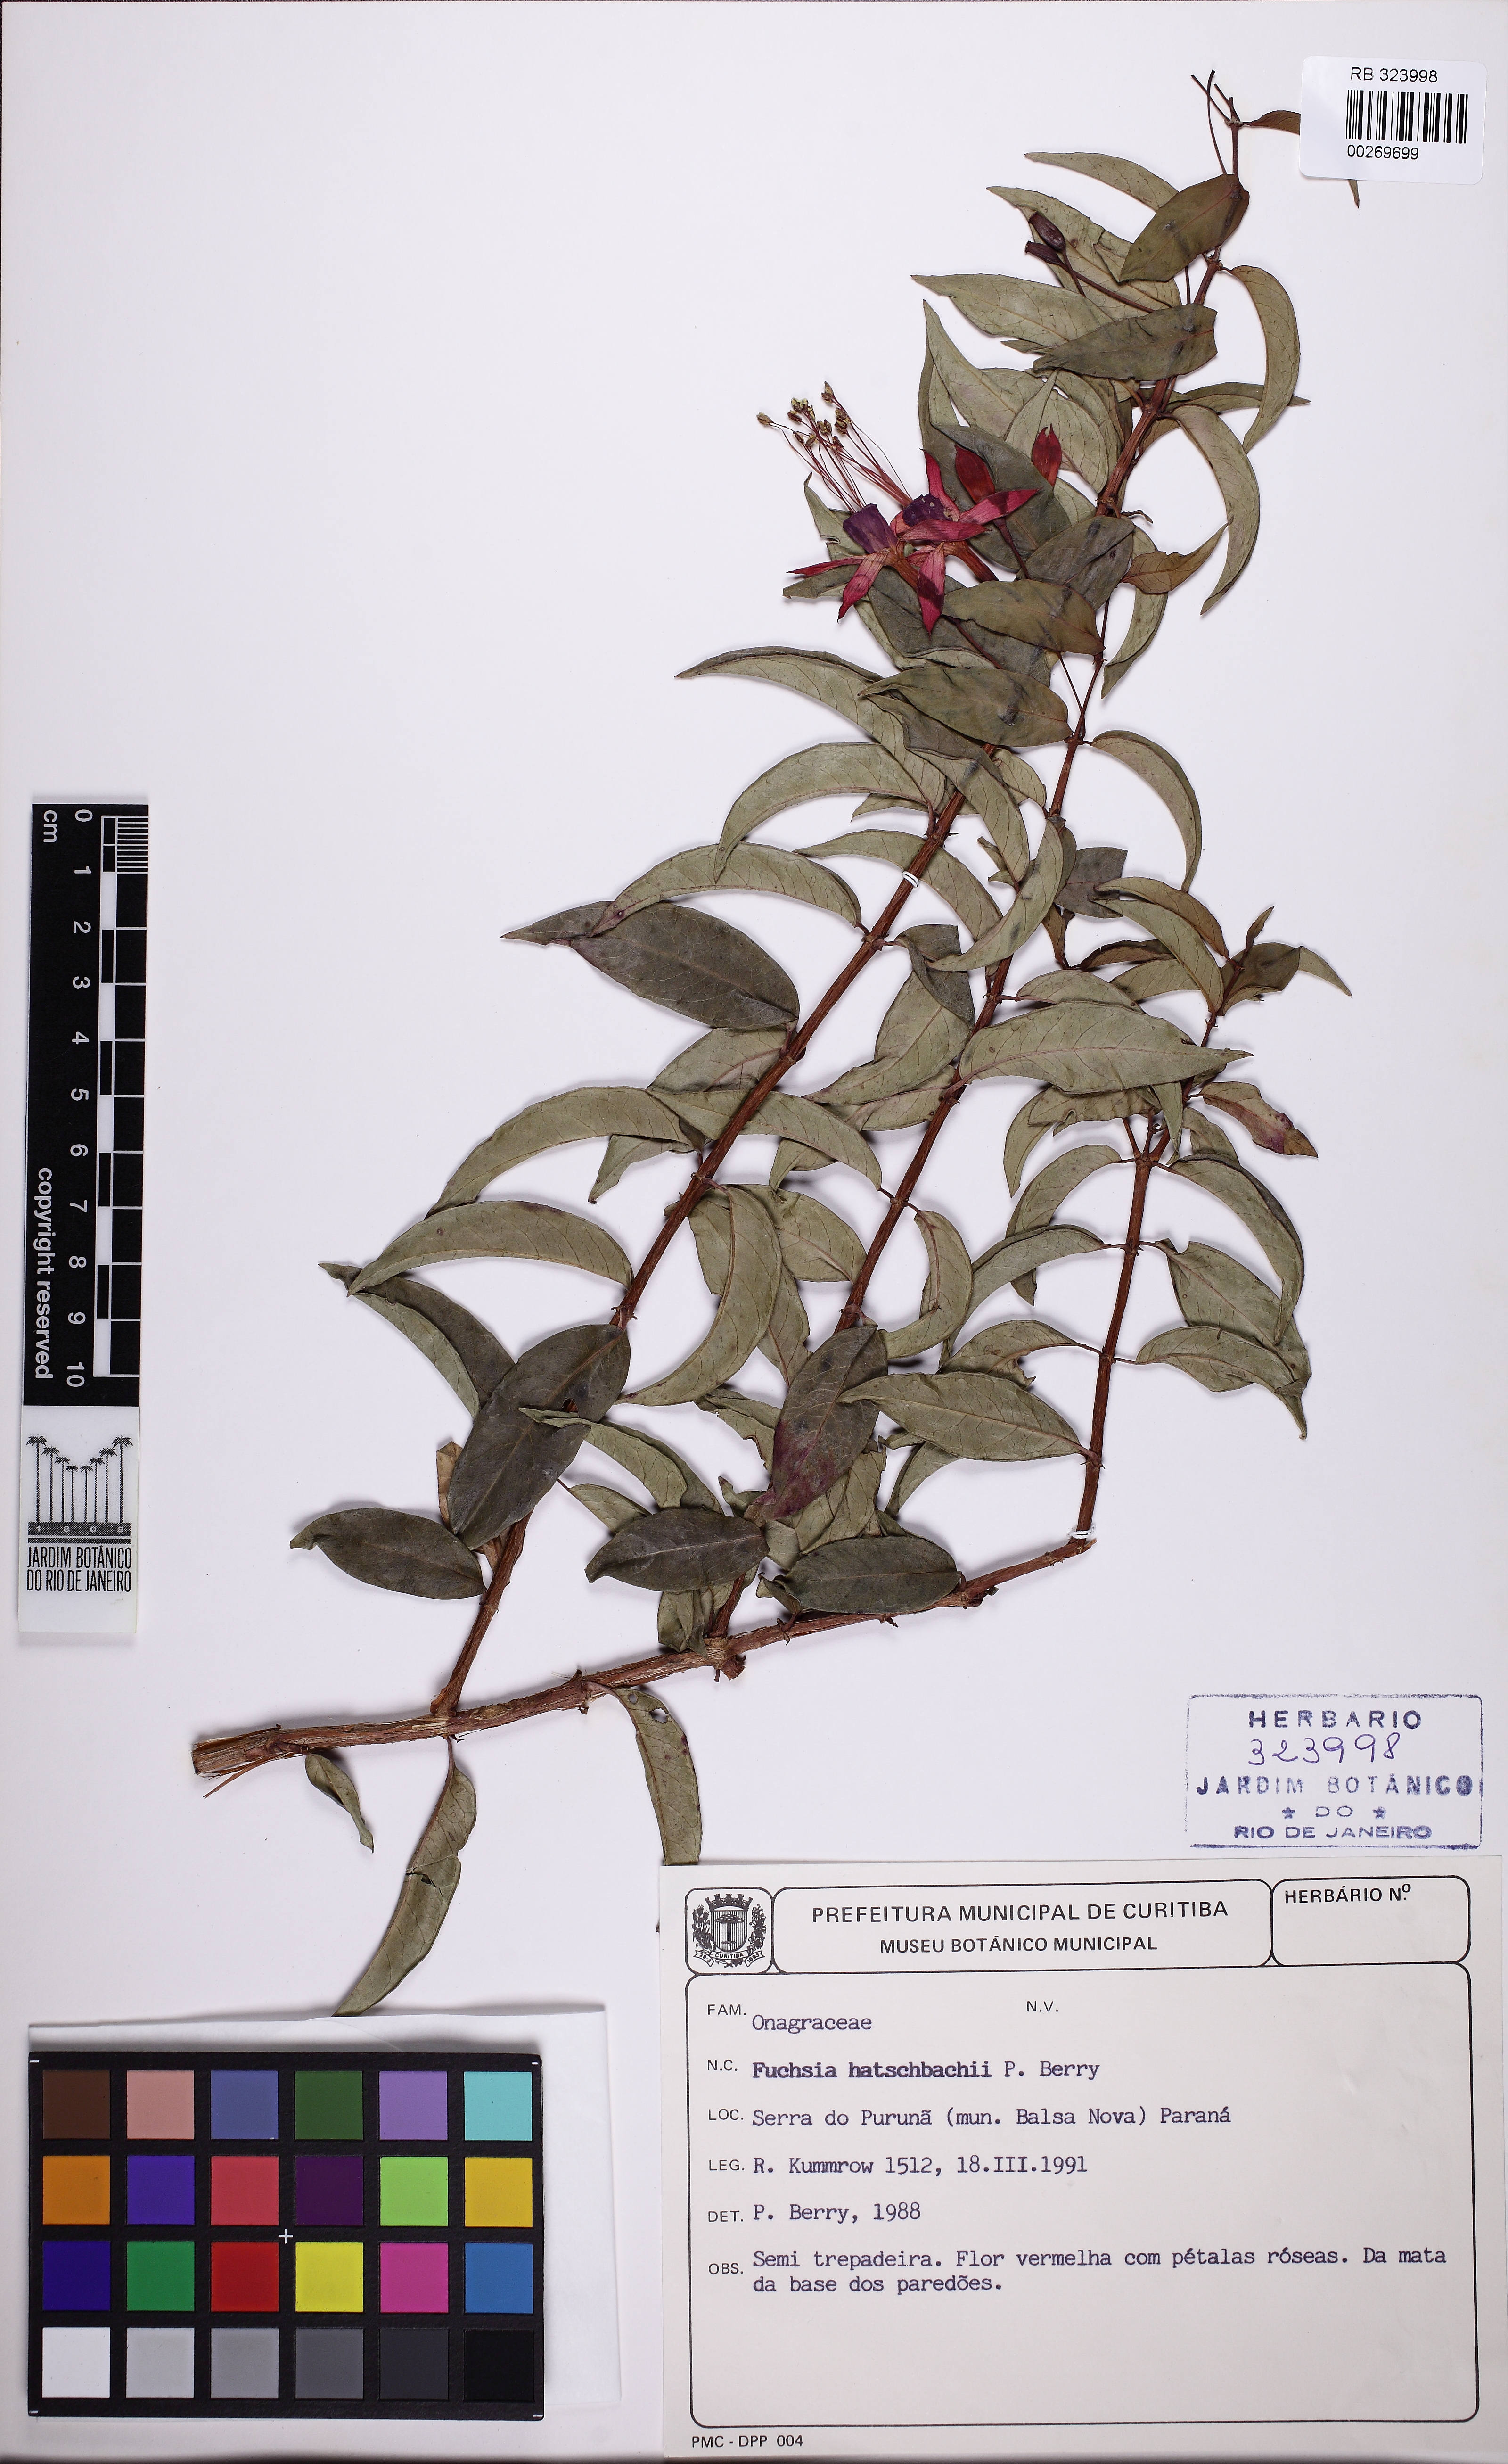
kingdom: Plantae
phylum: Tracheophyta
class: Magnoliopsida
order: Myrtales
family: Onagraceae
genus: Fuchsia
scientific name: Fuchsia hatschbachii
